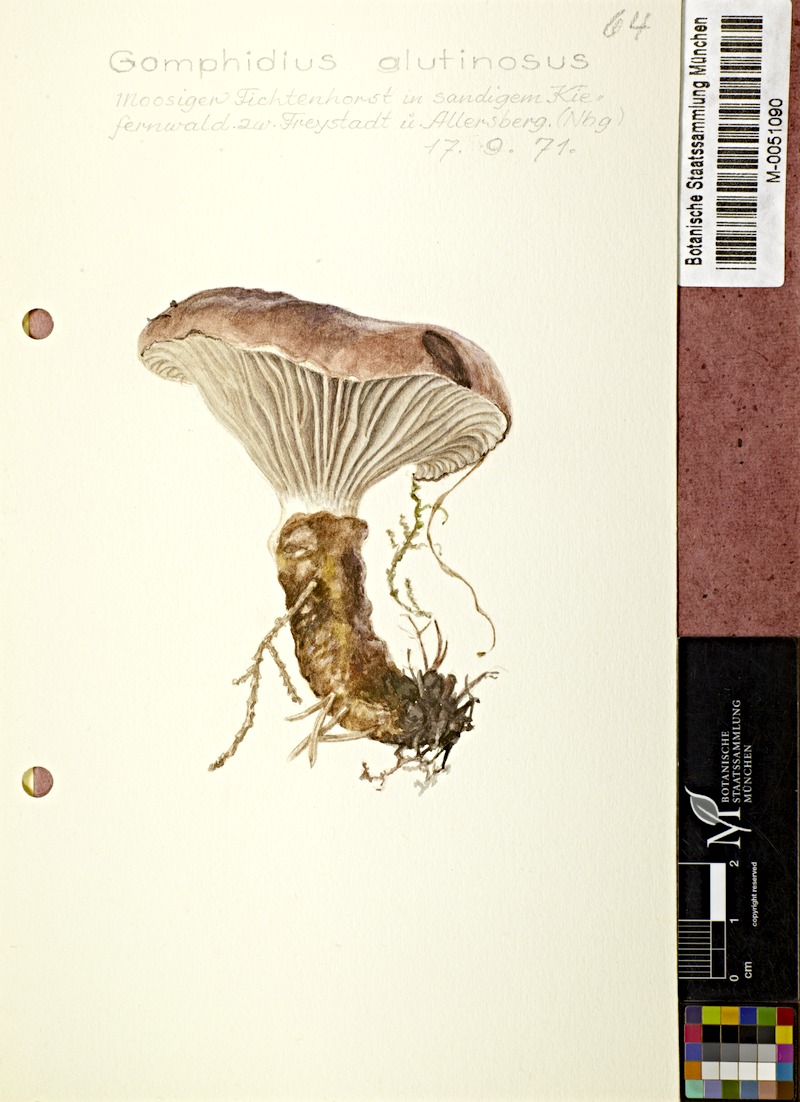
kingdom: Fungi
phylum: Basidiomycota
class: Agaricomycetes
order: Boletales
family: Gomphidiaceae
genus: Gomphidius
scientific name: Gomphidius glutinosus
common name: Slimy spike
